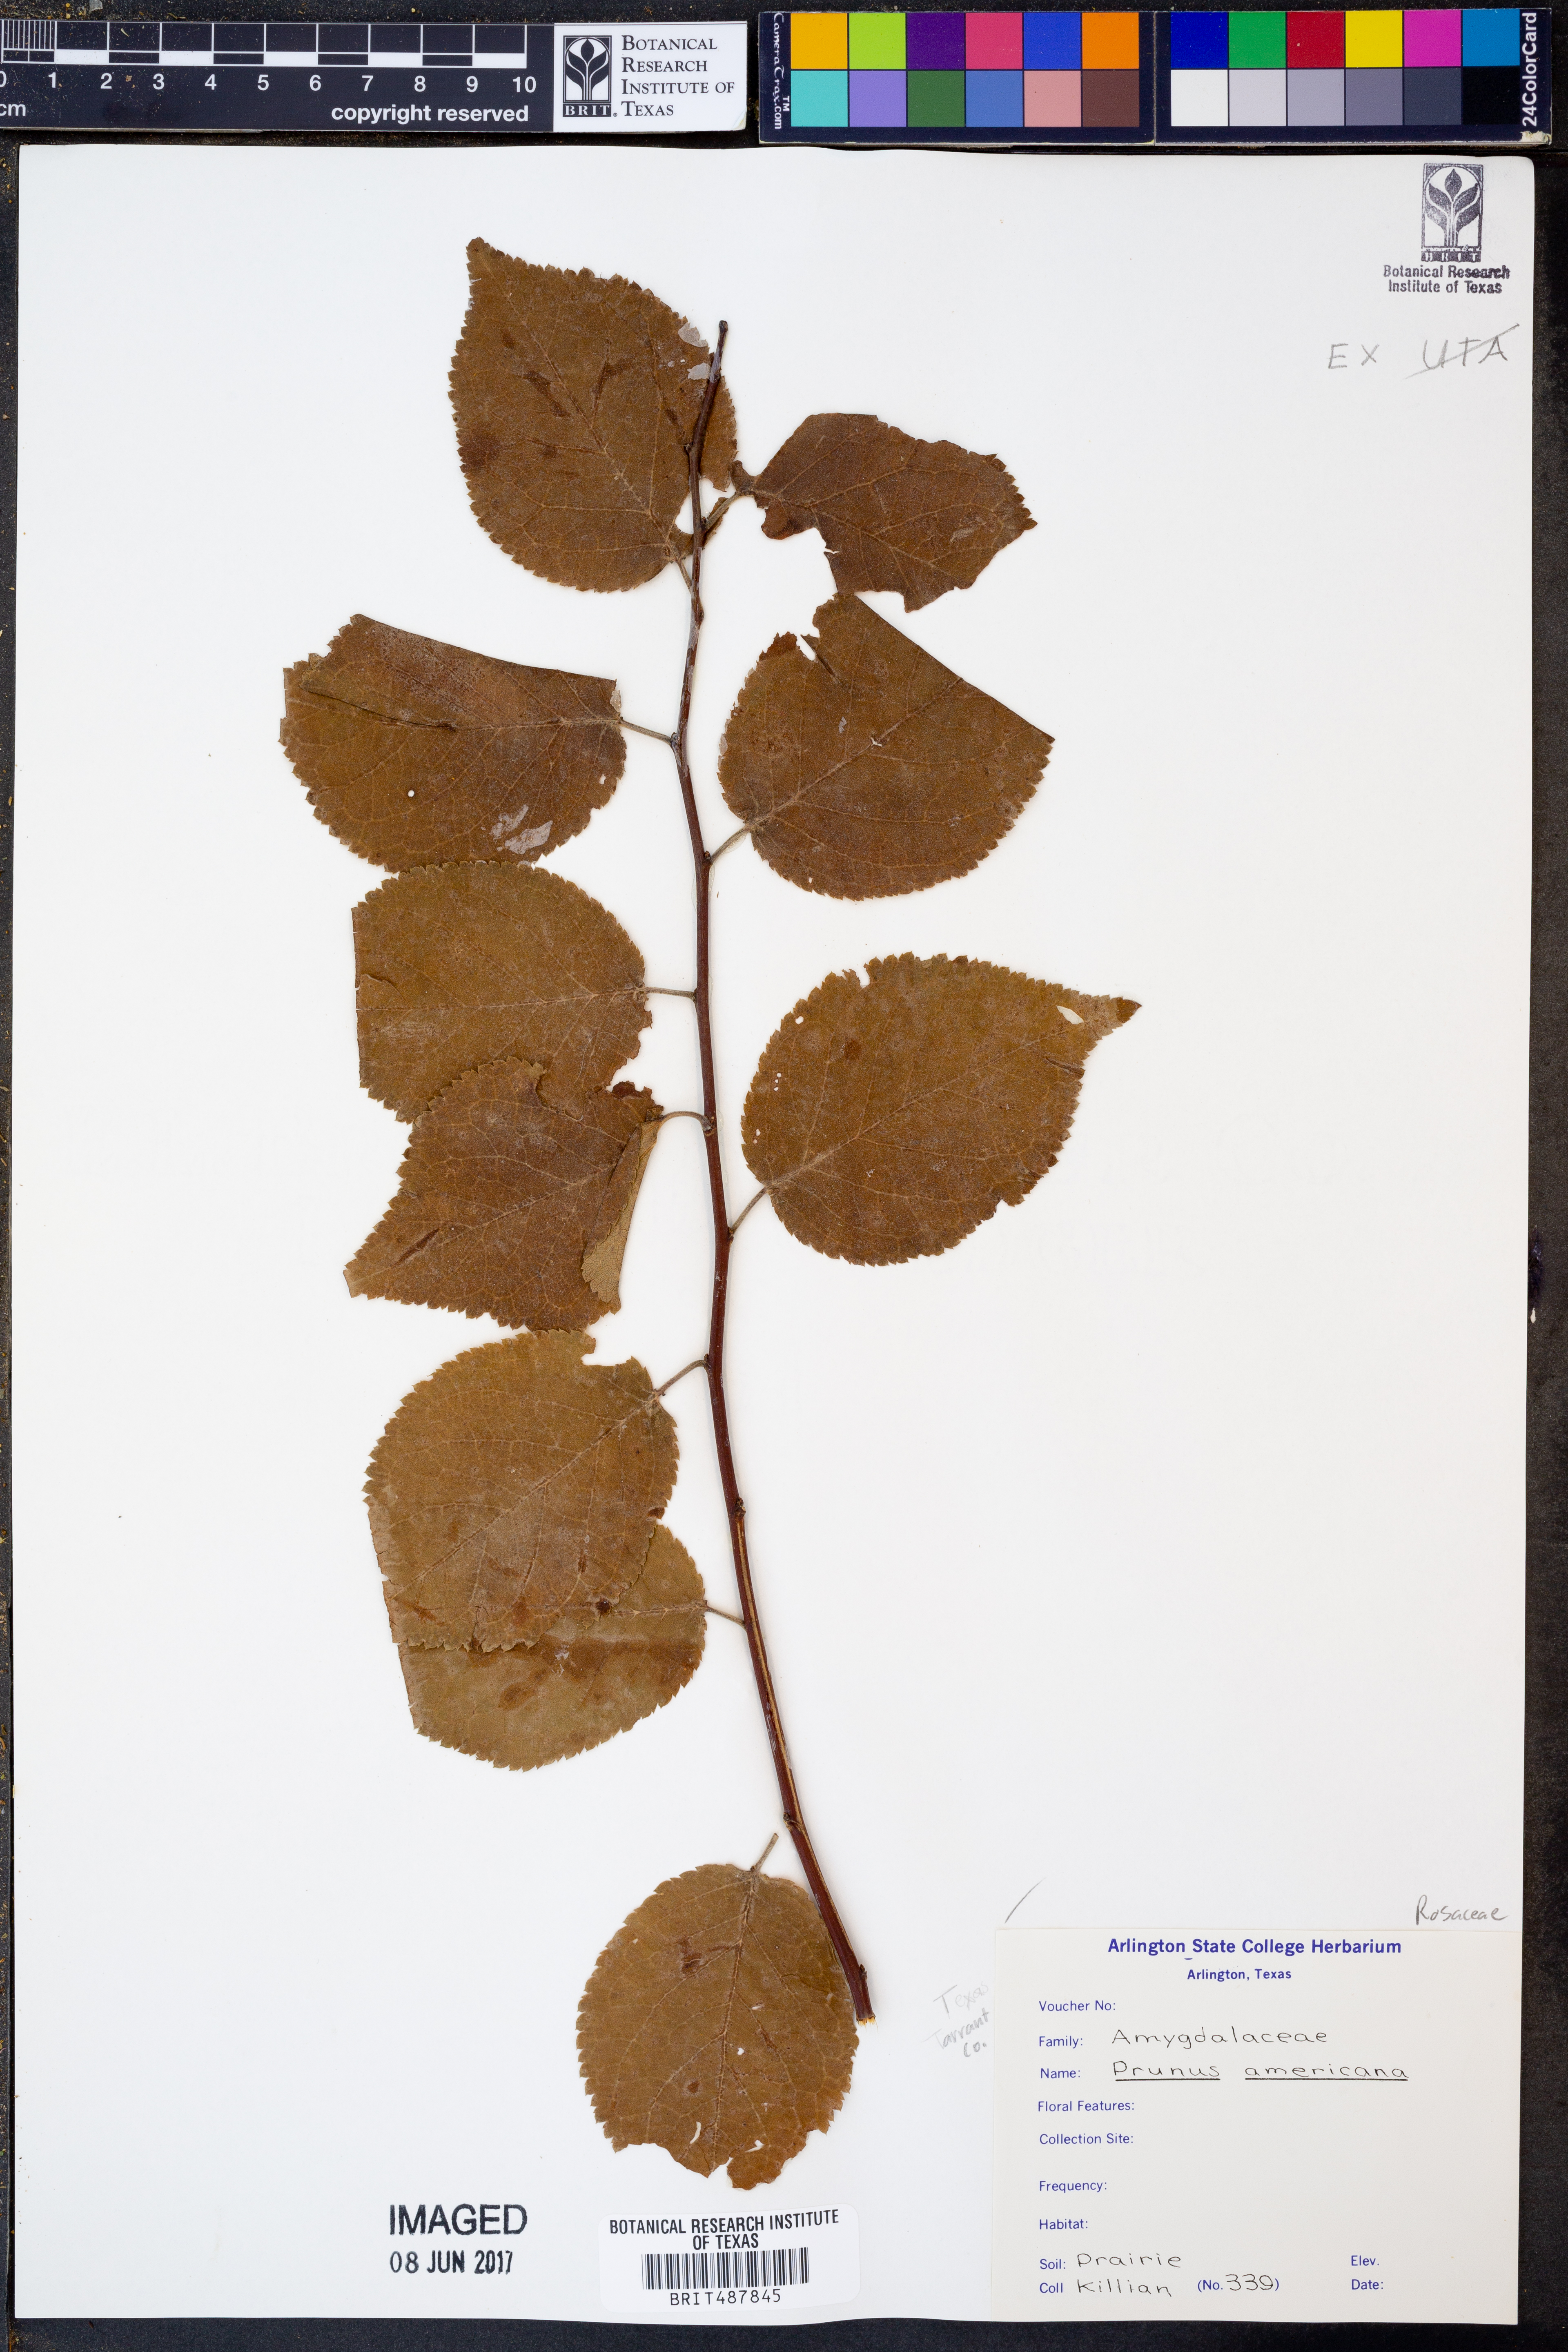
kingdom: Plantae
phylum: Tracheophyta
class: Magnoliopsida
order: Rosales
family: Rosaceae
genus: Prunus
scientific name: Prunus americana
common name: American plum
